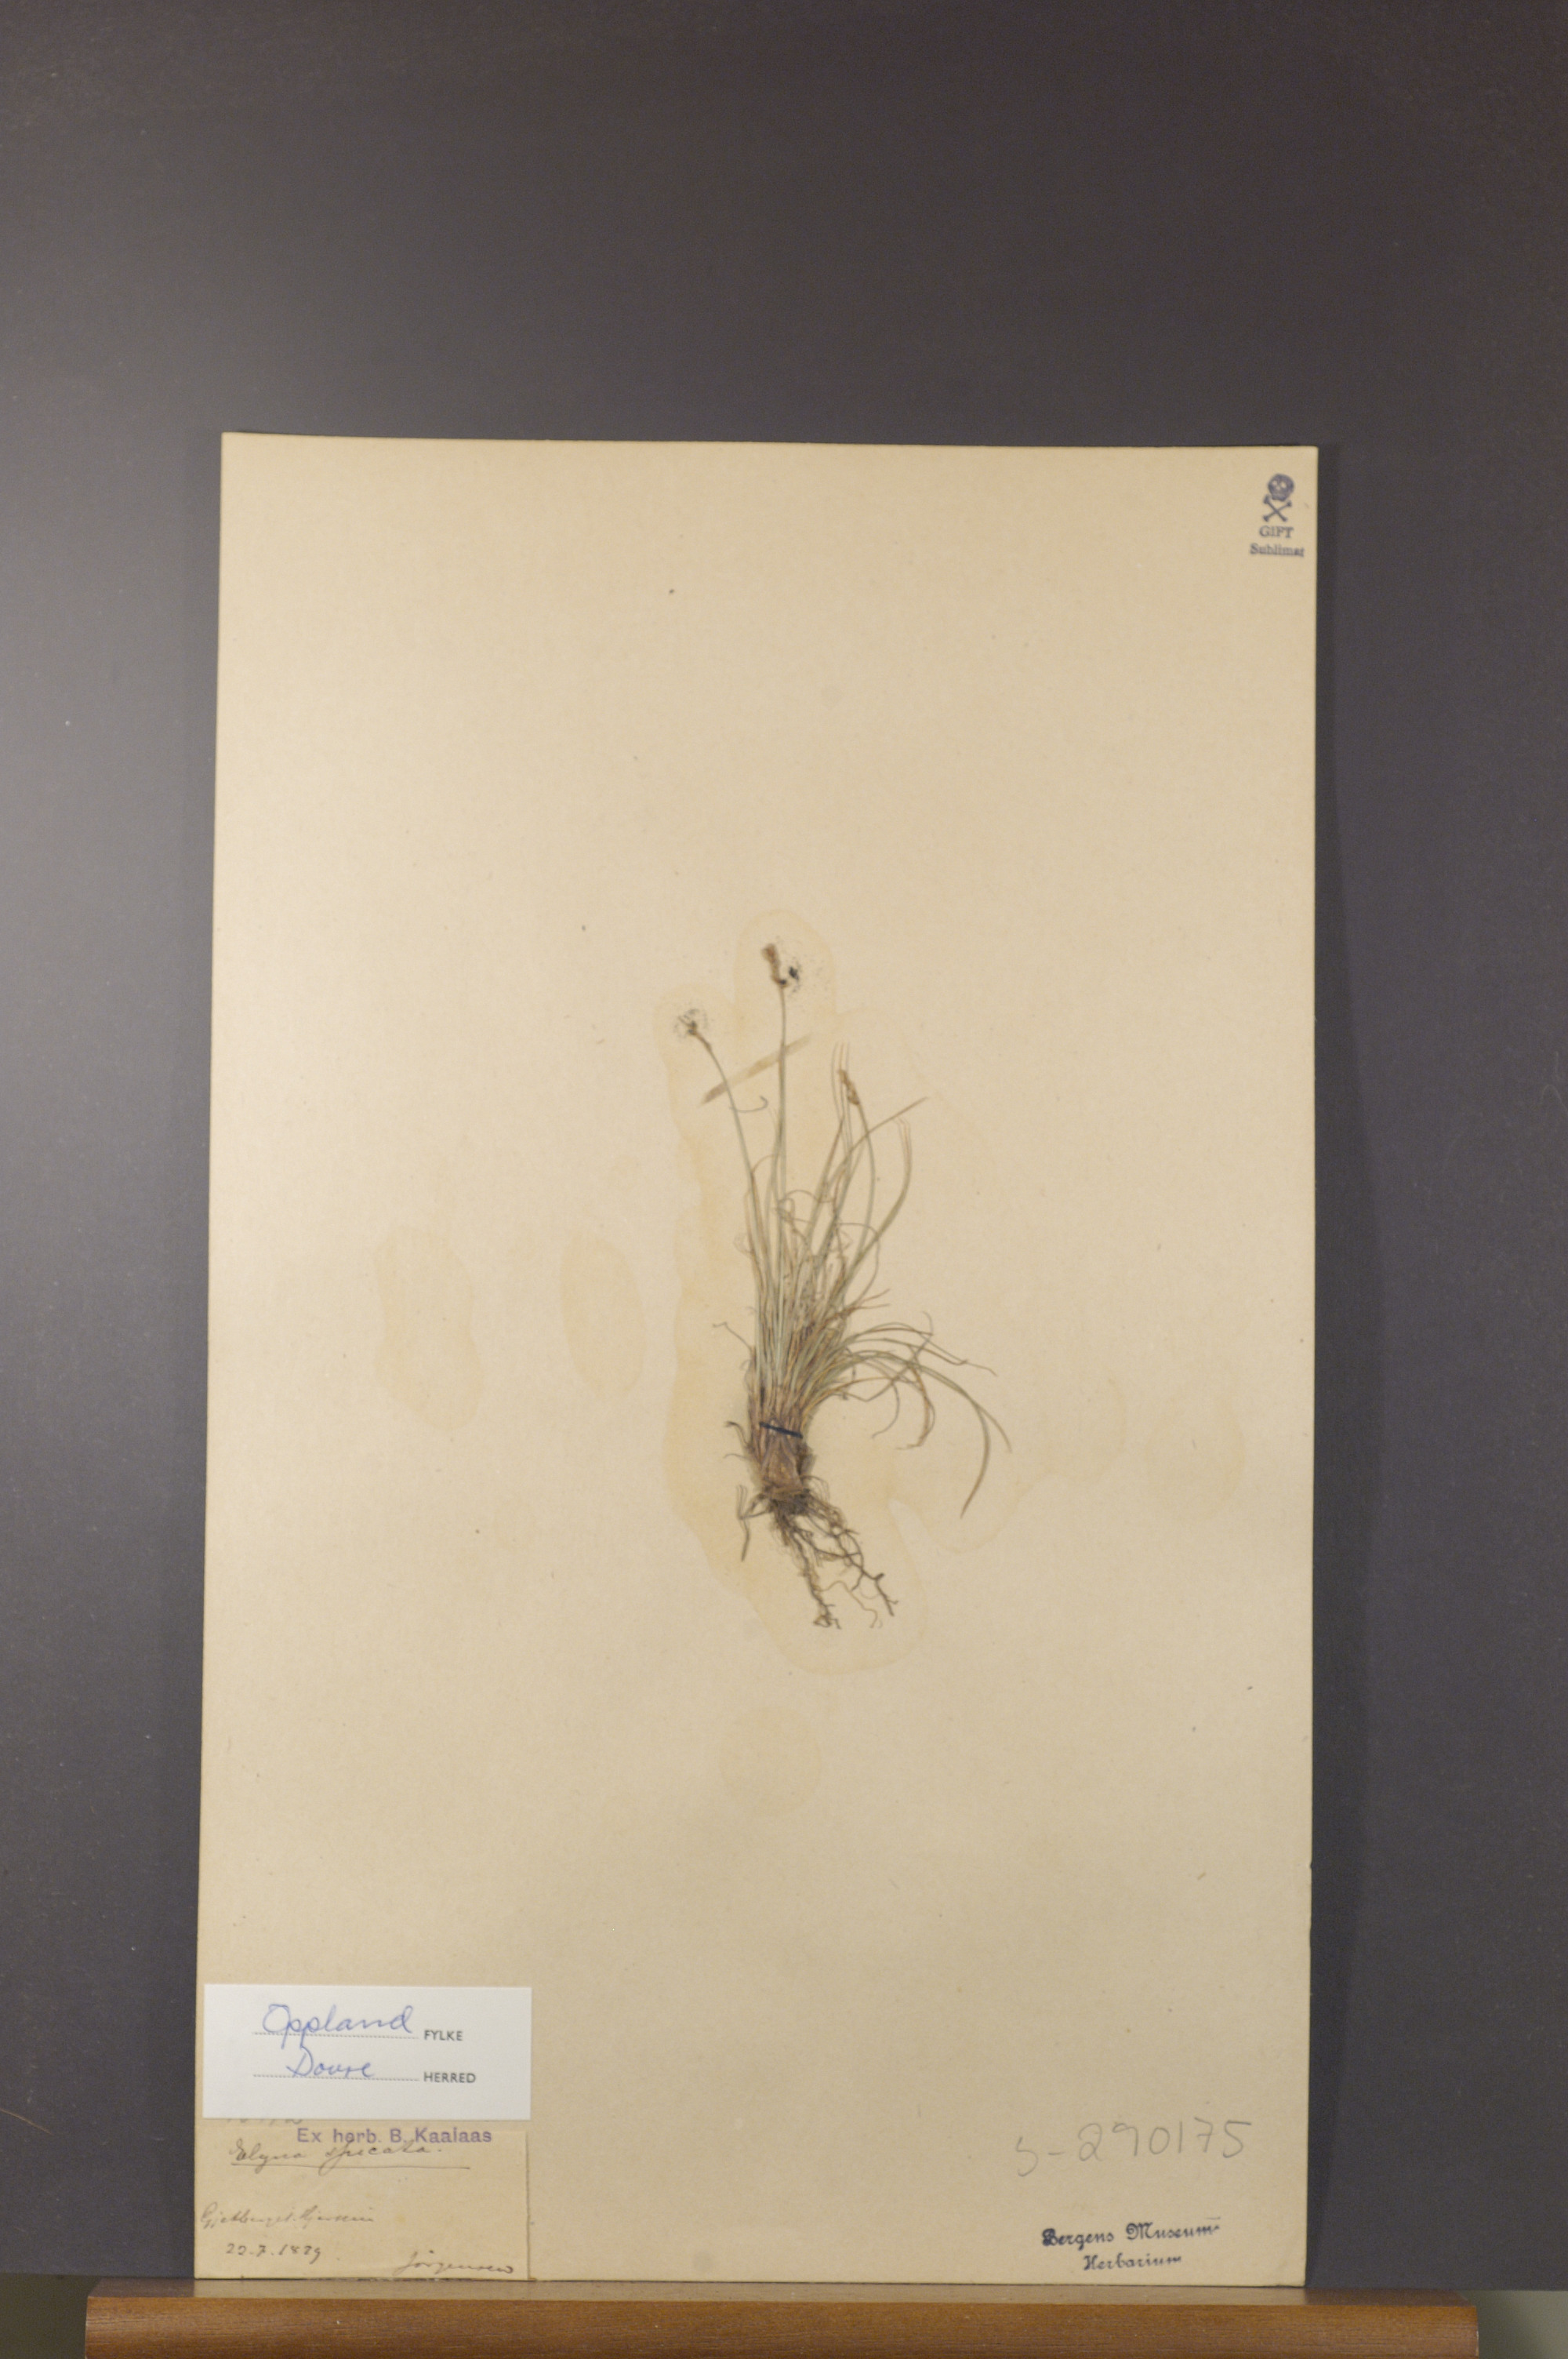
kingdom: Plantae
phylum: Tracheophyta
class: Liliopsida
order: Poales
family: Cyperaceae
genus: Carex
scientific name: Carex myosuroides
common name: Bellard's bog sedge
